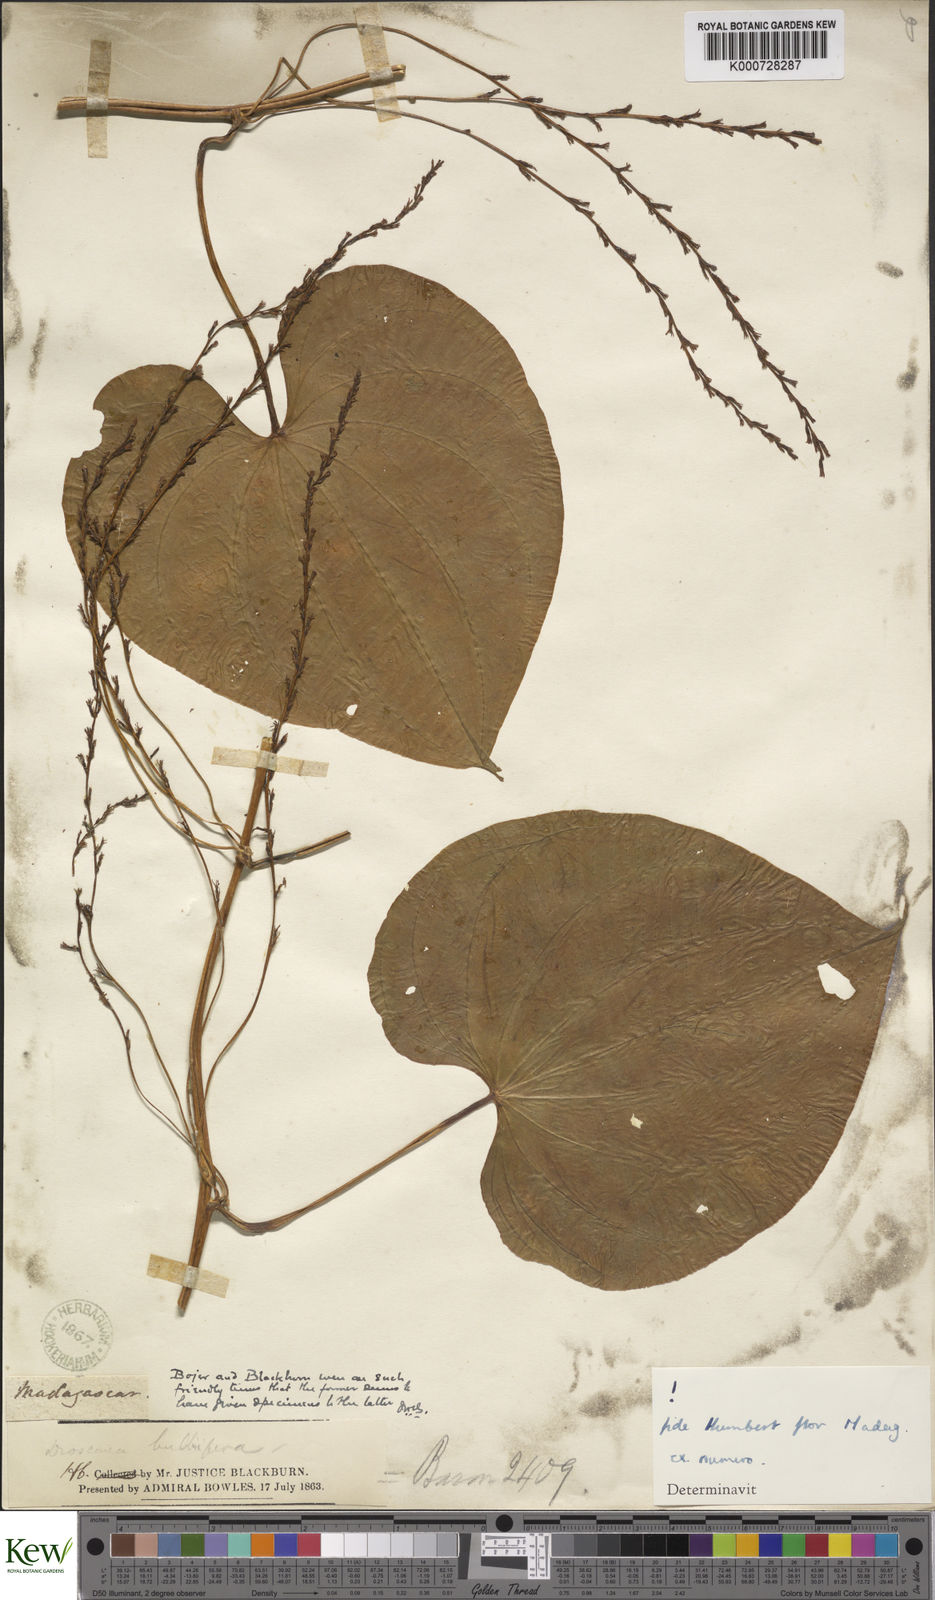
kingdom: Plantae
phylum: Tracheophyta
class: Liliopsida
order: Dioscoreales
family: Dioscoreaceae
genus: Dioscorea
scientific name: Dioscorea bulbifera
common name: Air yam
